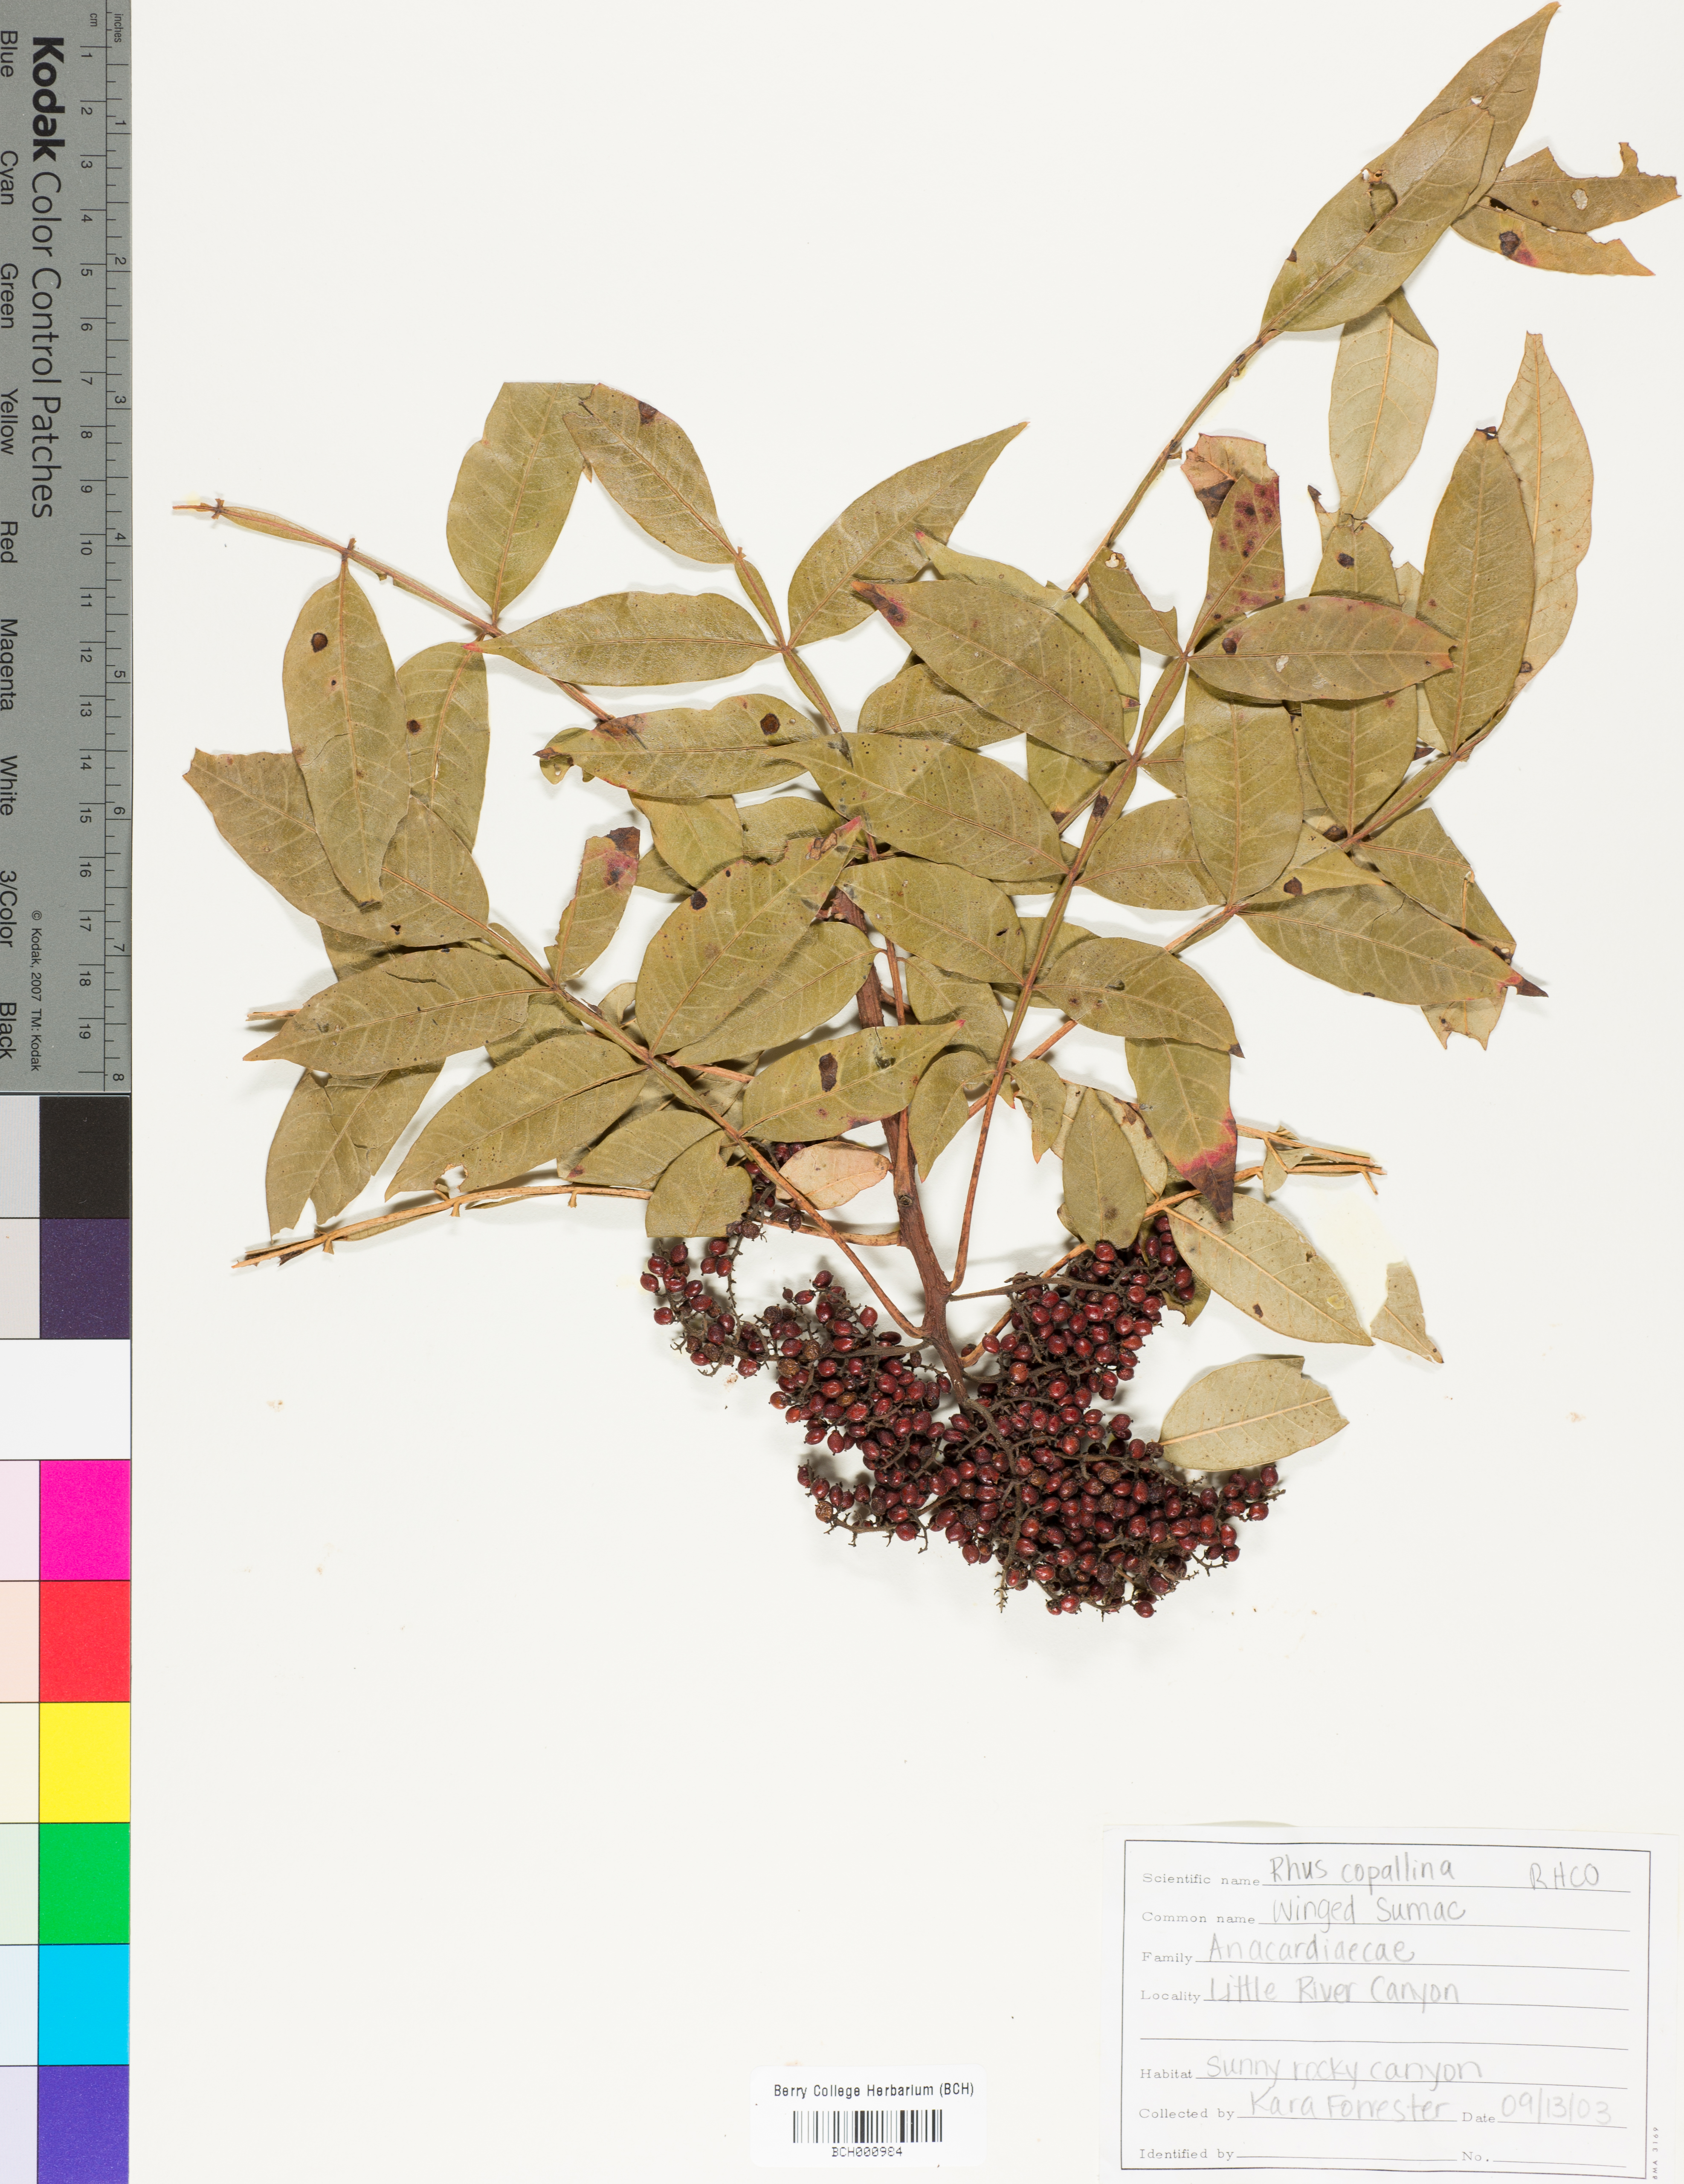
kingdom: Plantae
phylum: Tracheophyta
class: Magnoliopsida
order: Sapindales
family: Anacardiaceae
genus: Rhus
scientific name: Rhus copallina
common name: Shining sumac
